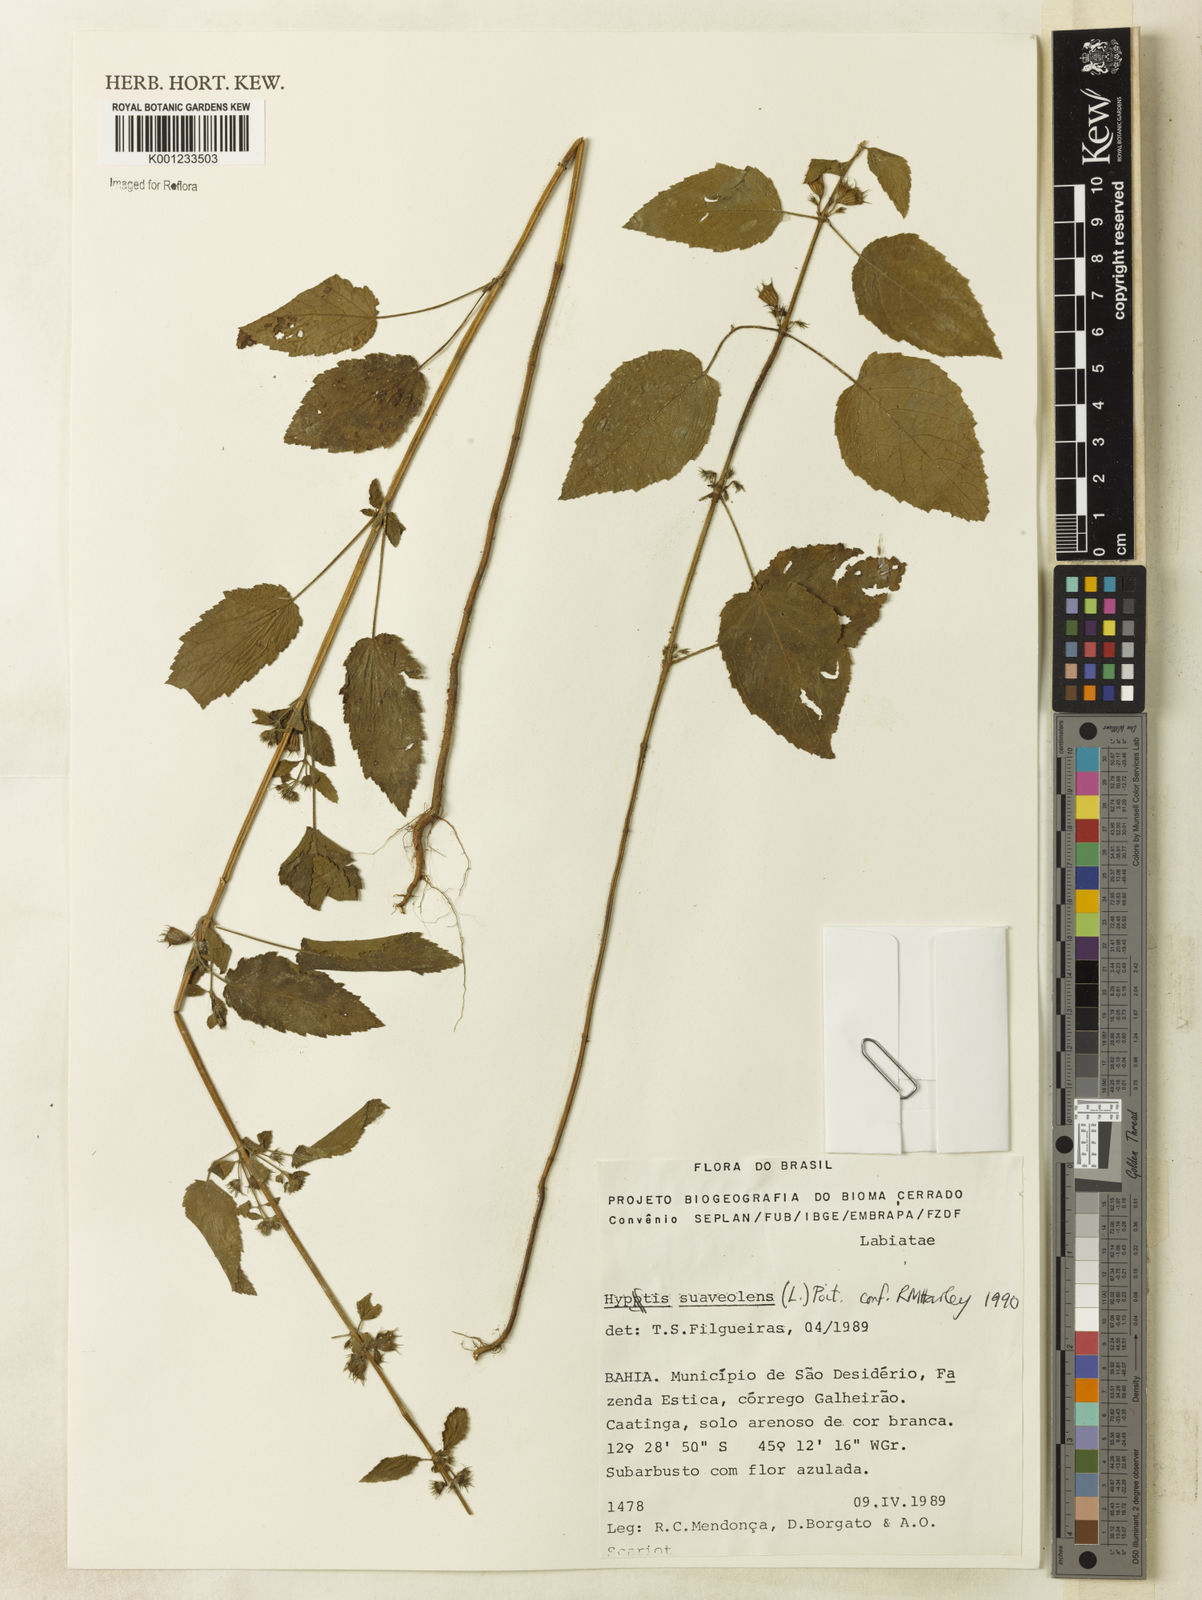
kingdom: Plantae
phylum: Tracheophyta
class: Magnoliopsida
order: Lamiales
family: Lamiaceae
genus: Mesosphaerum
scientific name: Mesosphaerum suaveolens
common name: Pignut
